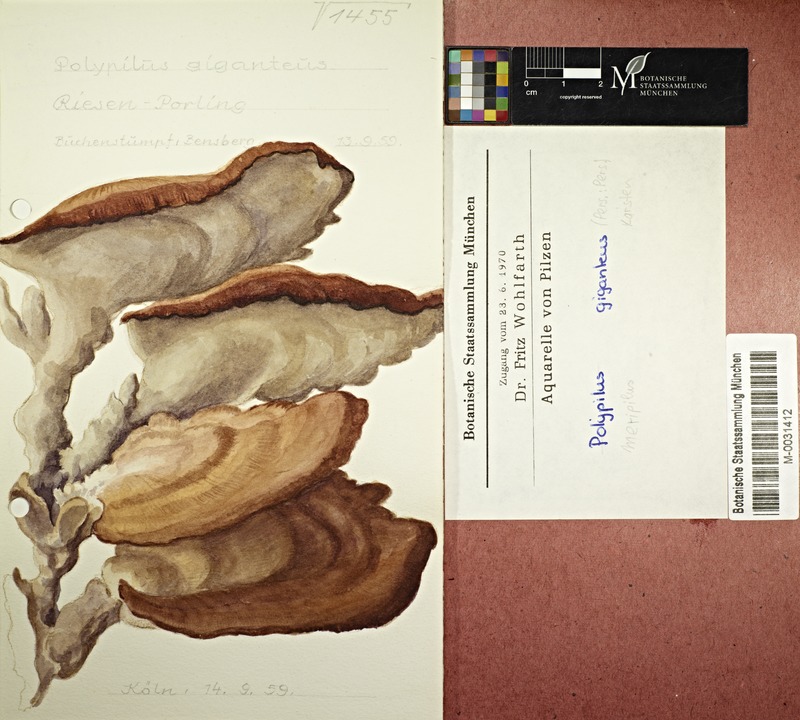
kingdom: Fungi
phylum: Basidiomycota
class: Agaricomycetes
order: Polyporales
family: Meripilaceae
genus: Meripilus
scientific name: Meripilus giganteus
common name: Giant polypore
